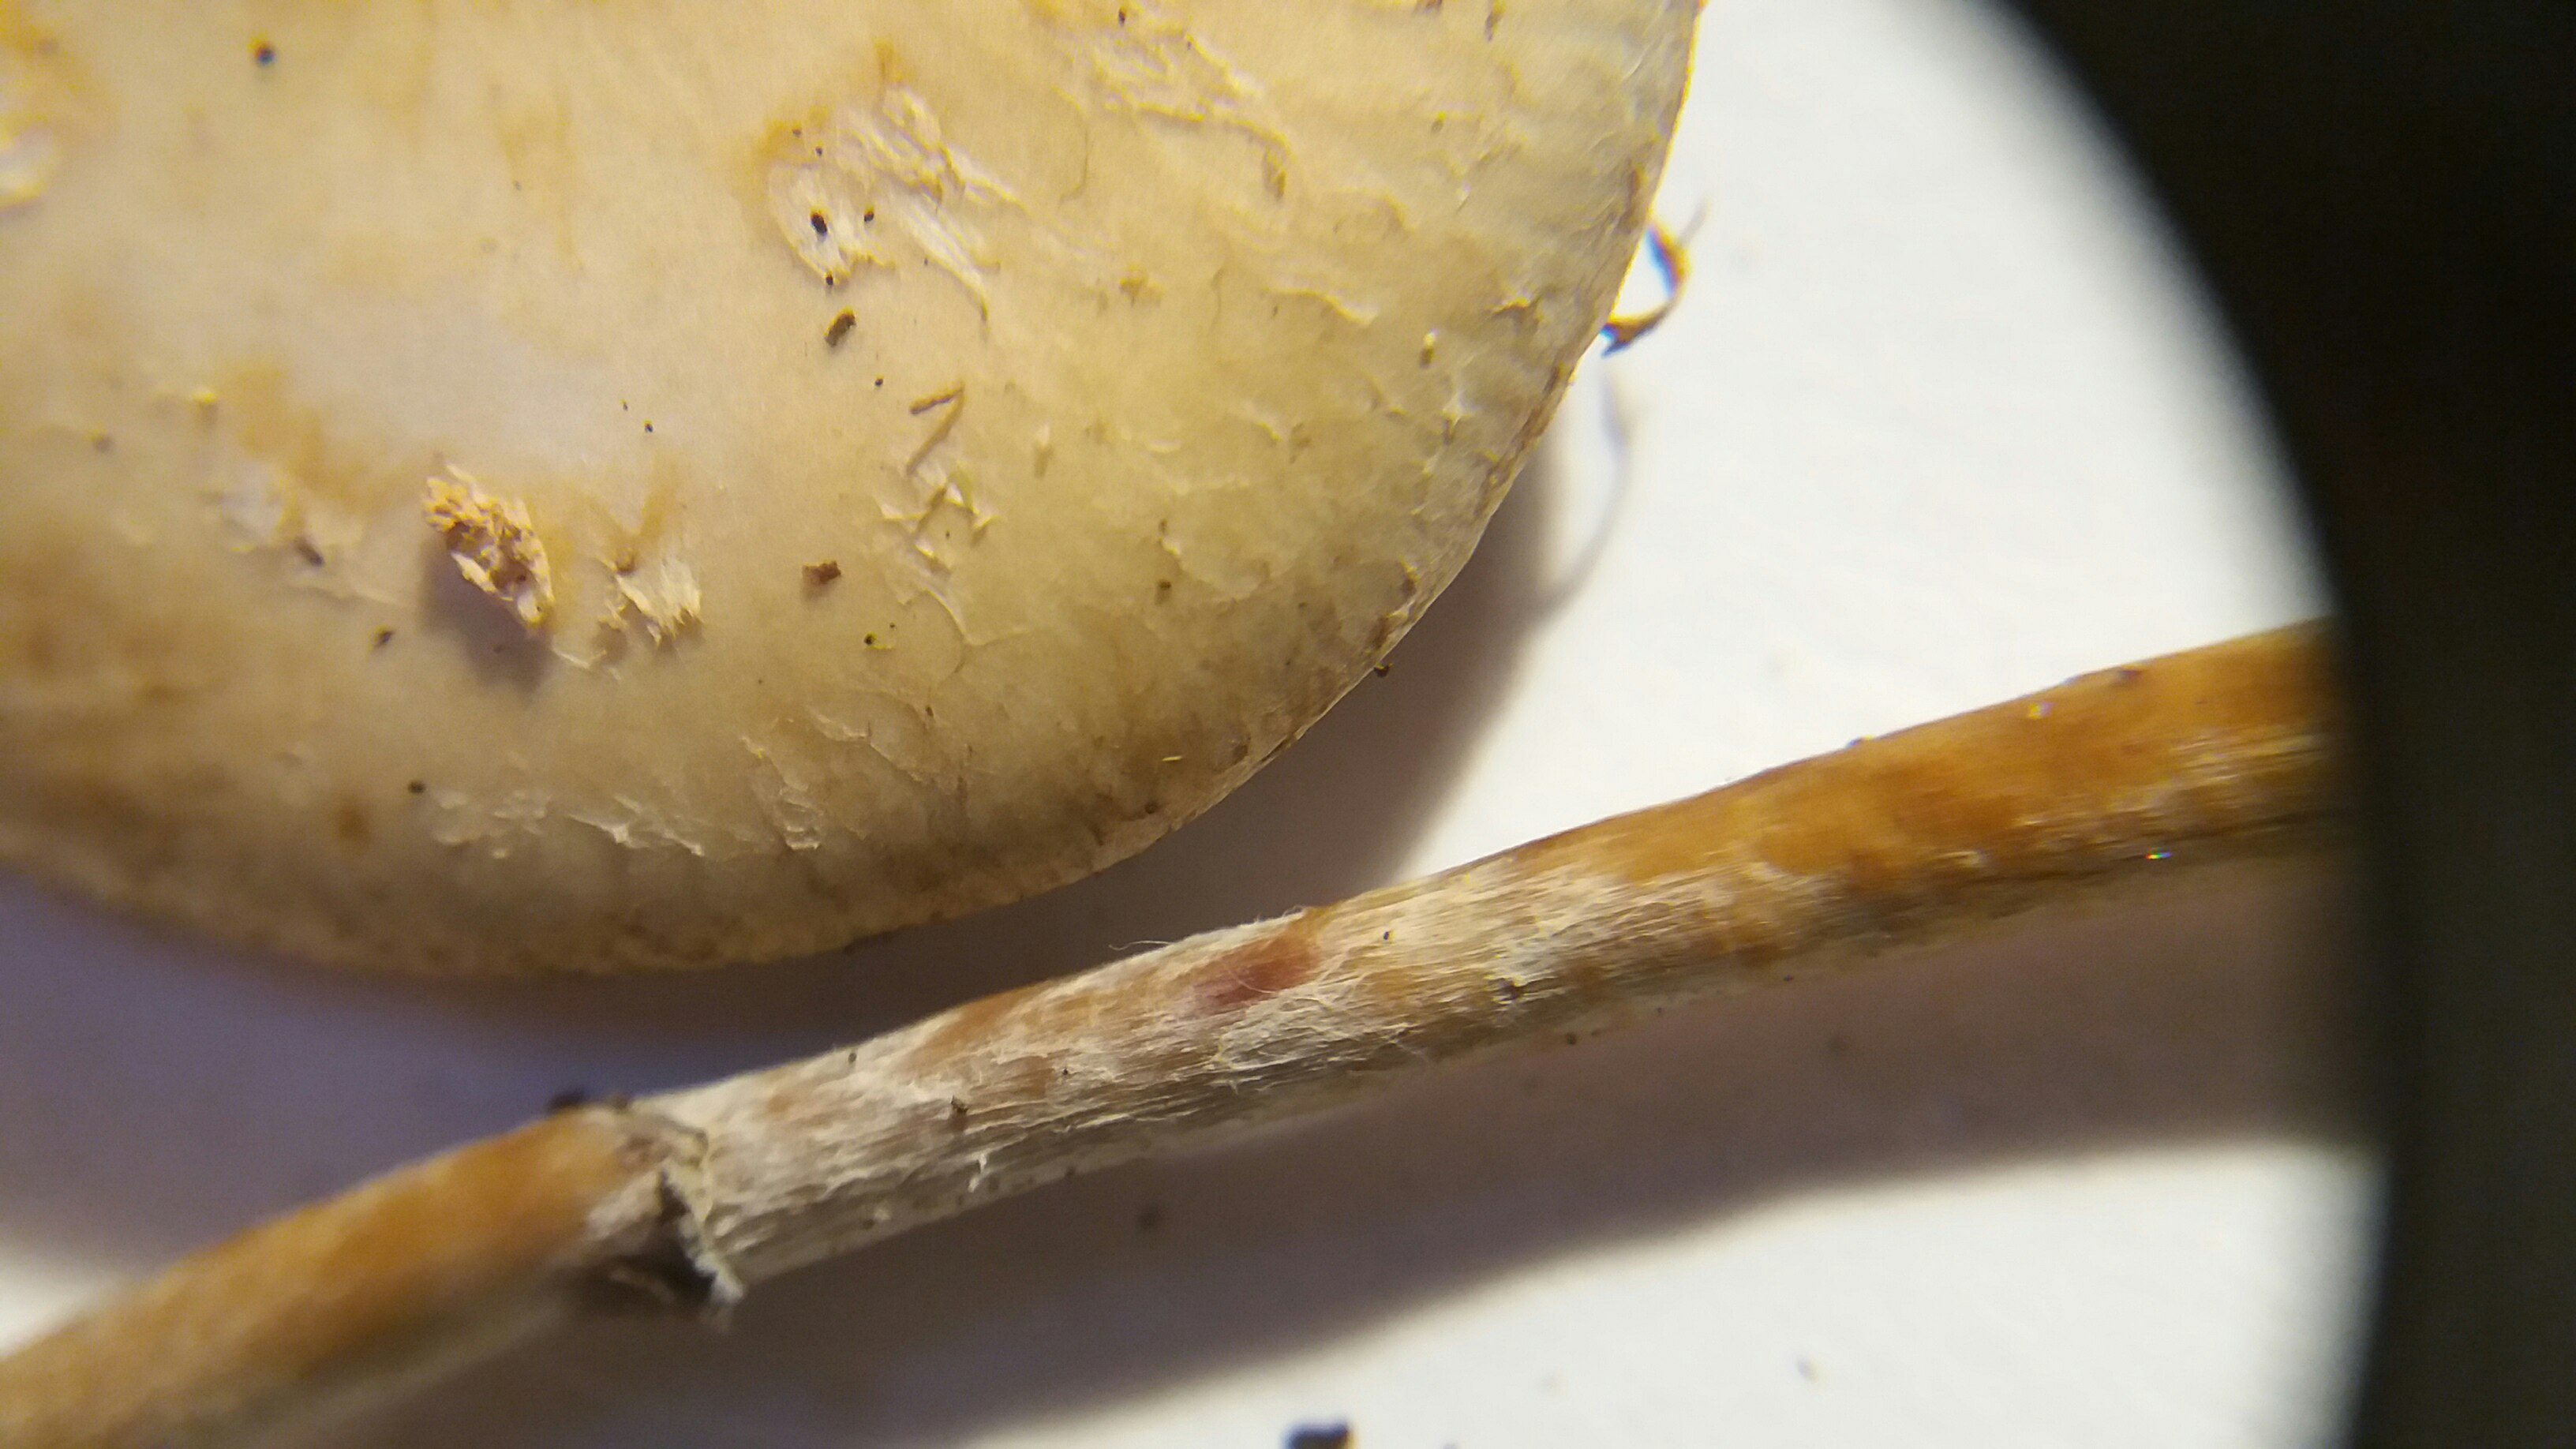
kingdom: Fungi
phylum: Basidiomycota
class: Agaricomycetes
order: Agaricales
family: Strophariaceae
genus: Leratiomyces
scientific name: Leratiomyces squamosus
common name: skællet bredblad
